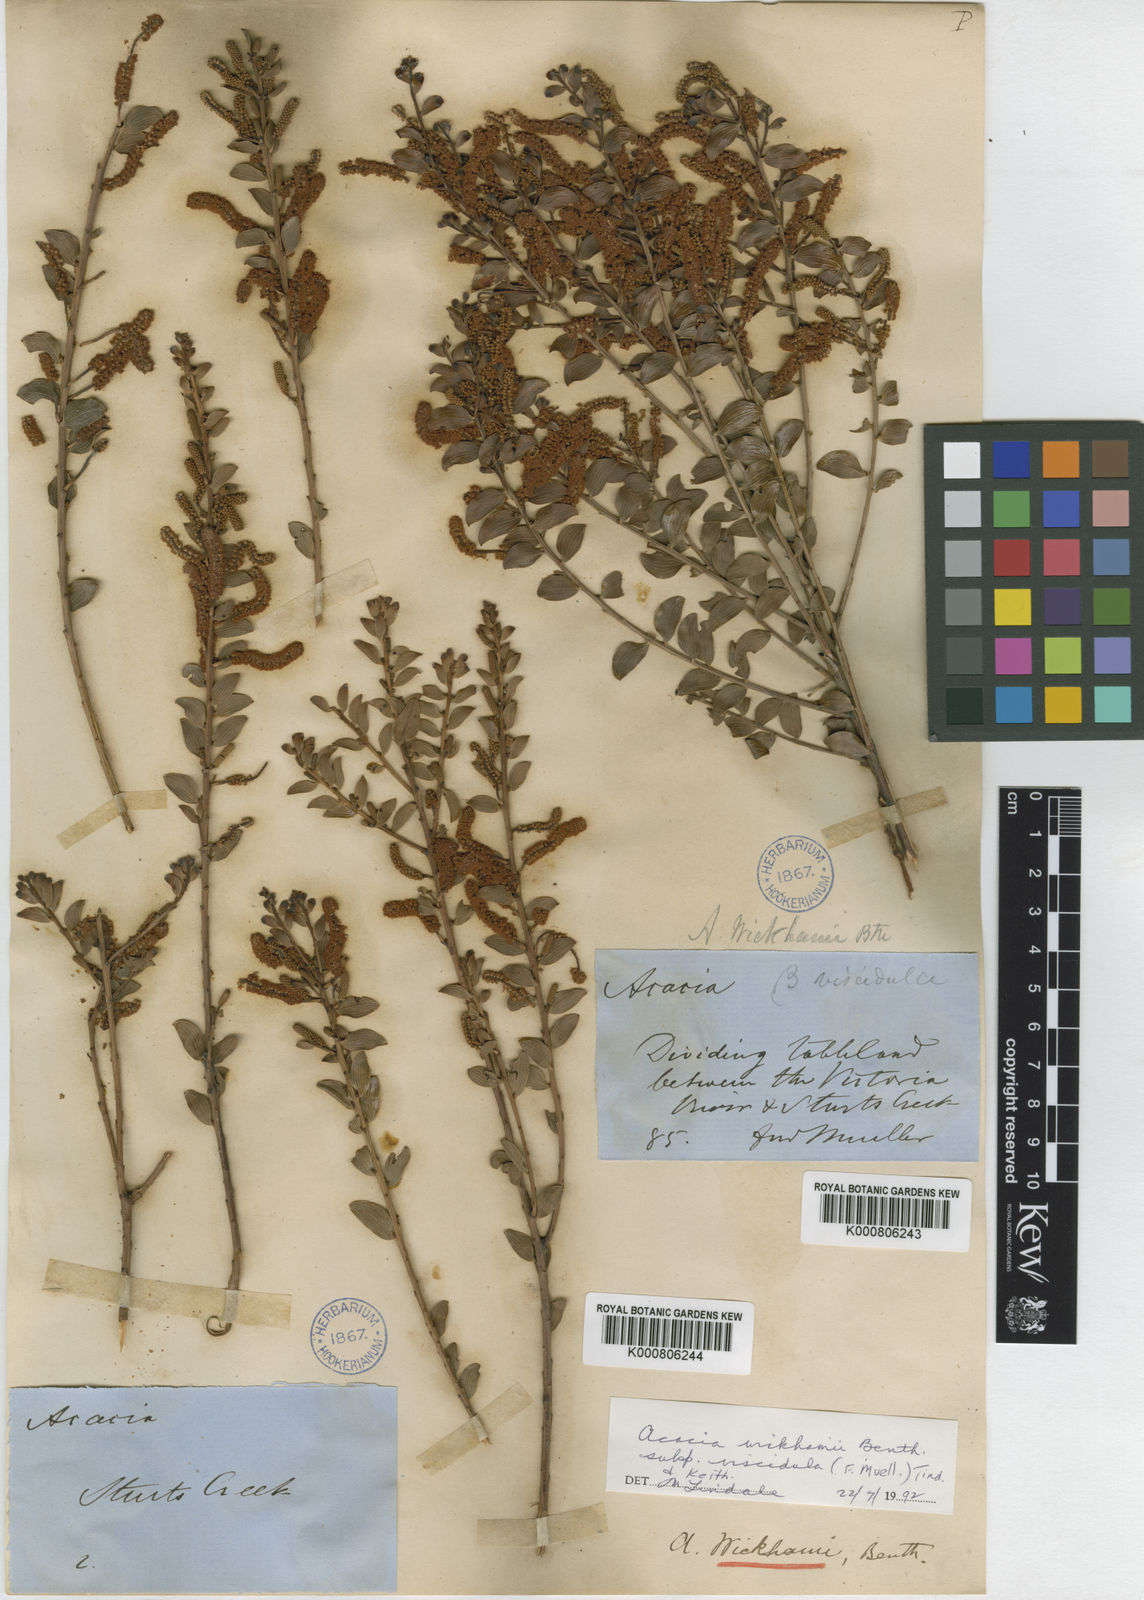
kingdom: Plantae
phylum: Tracheophyta
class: Magnoliopsida
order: Fabales
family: Fabaceae
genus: Acacia
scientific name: Acacia wickhamii
